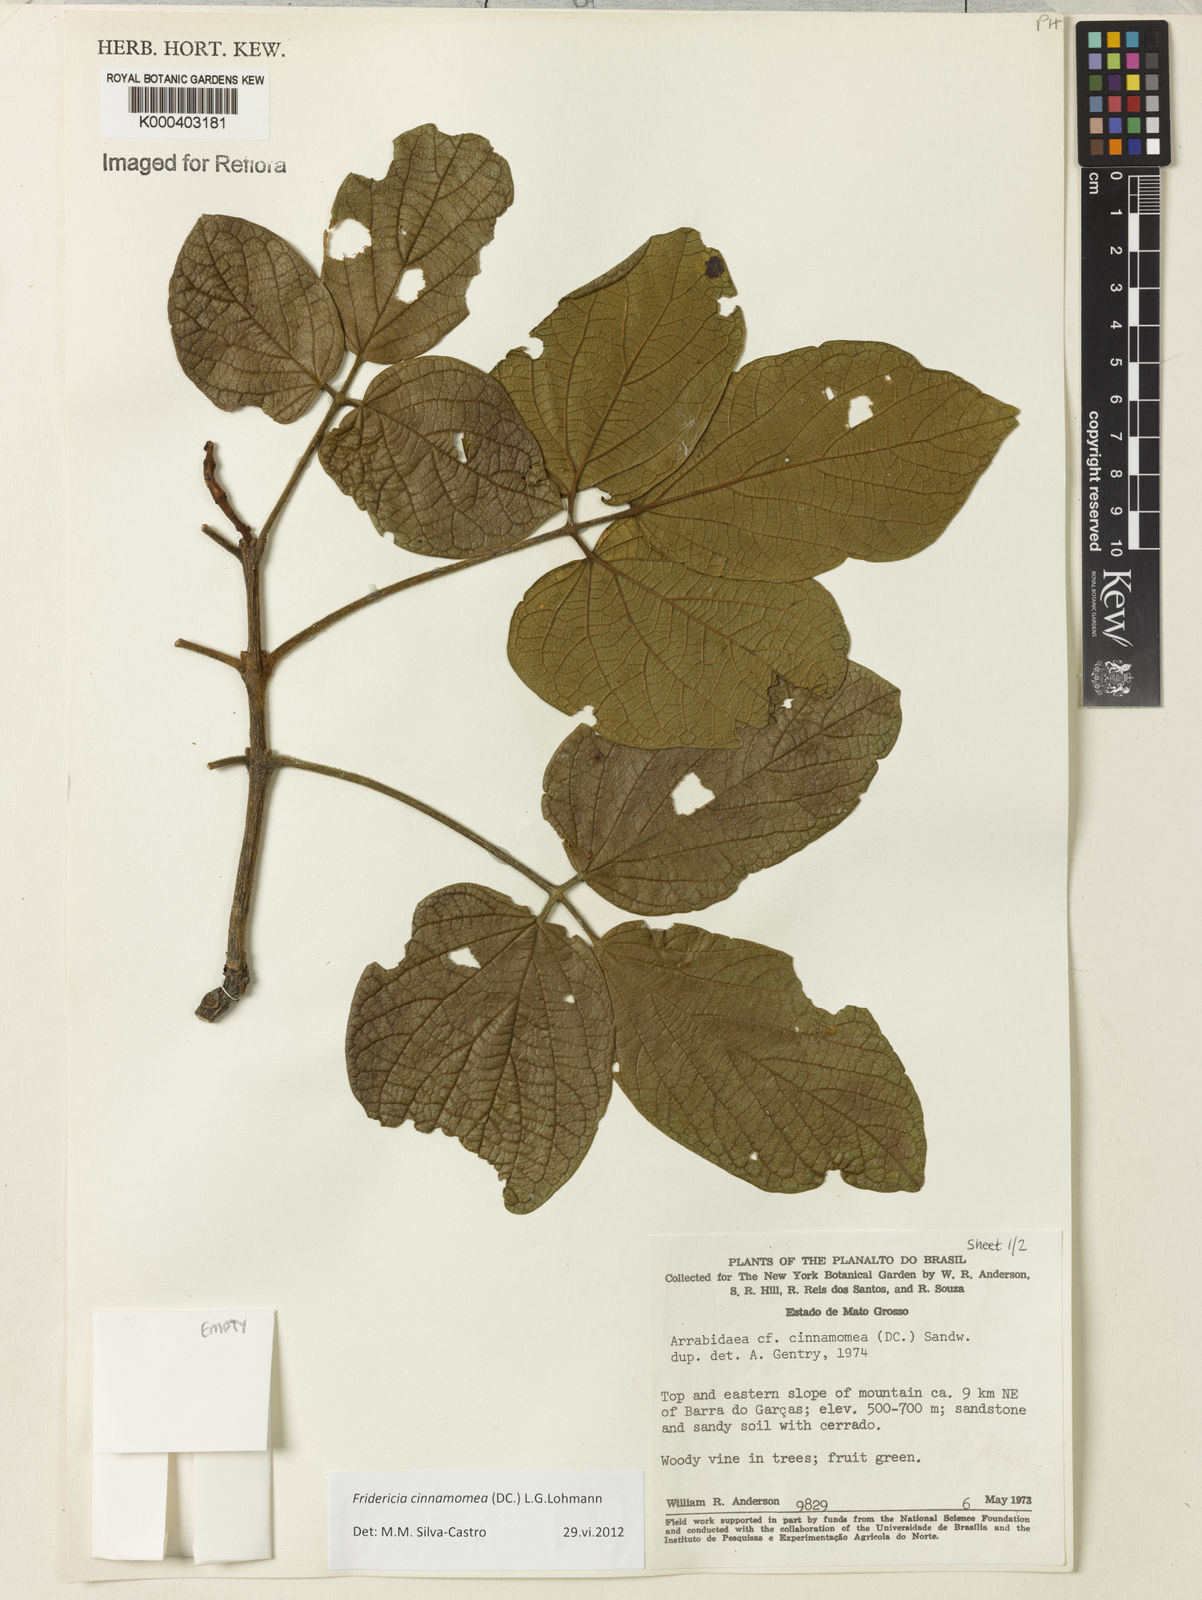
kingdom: Plantae
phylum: Tracheophyta
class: Magnoliopsida
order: Lamiales
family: Bignoniaceae
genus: Fridericia
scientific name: Fridericia cinnamomea
